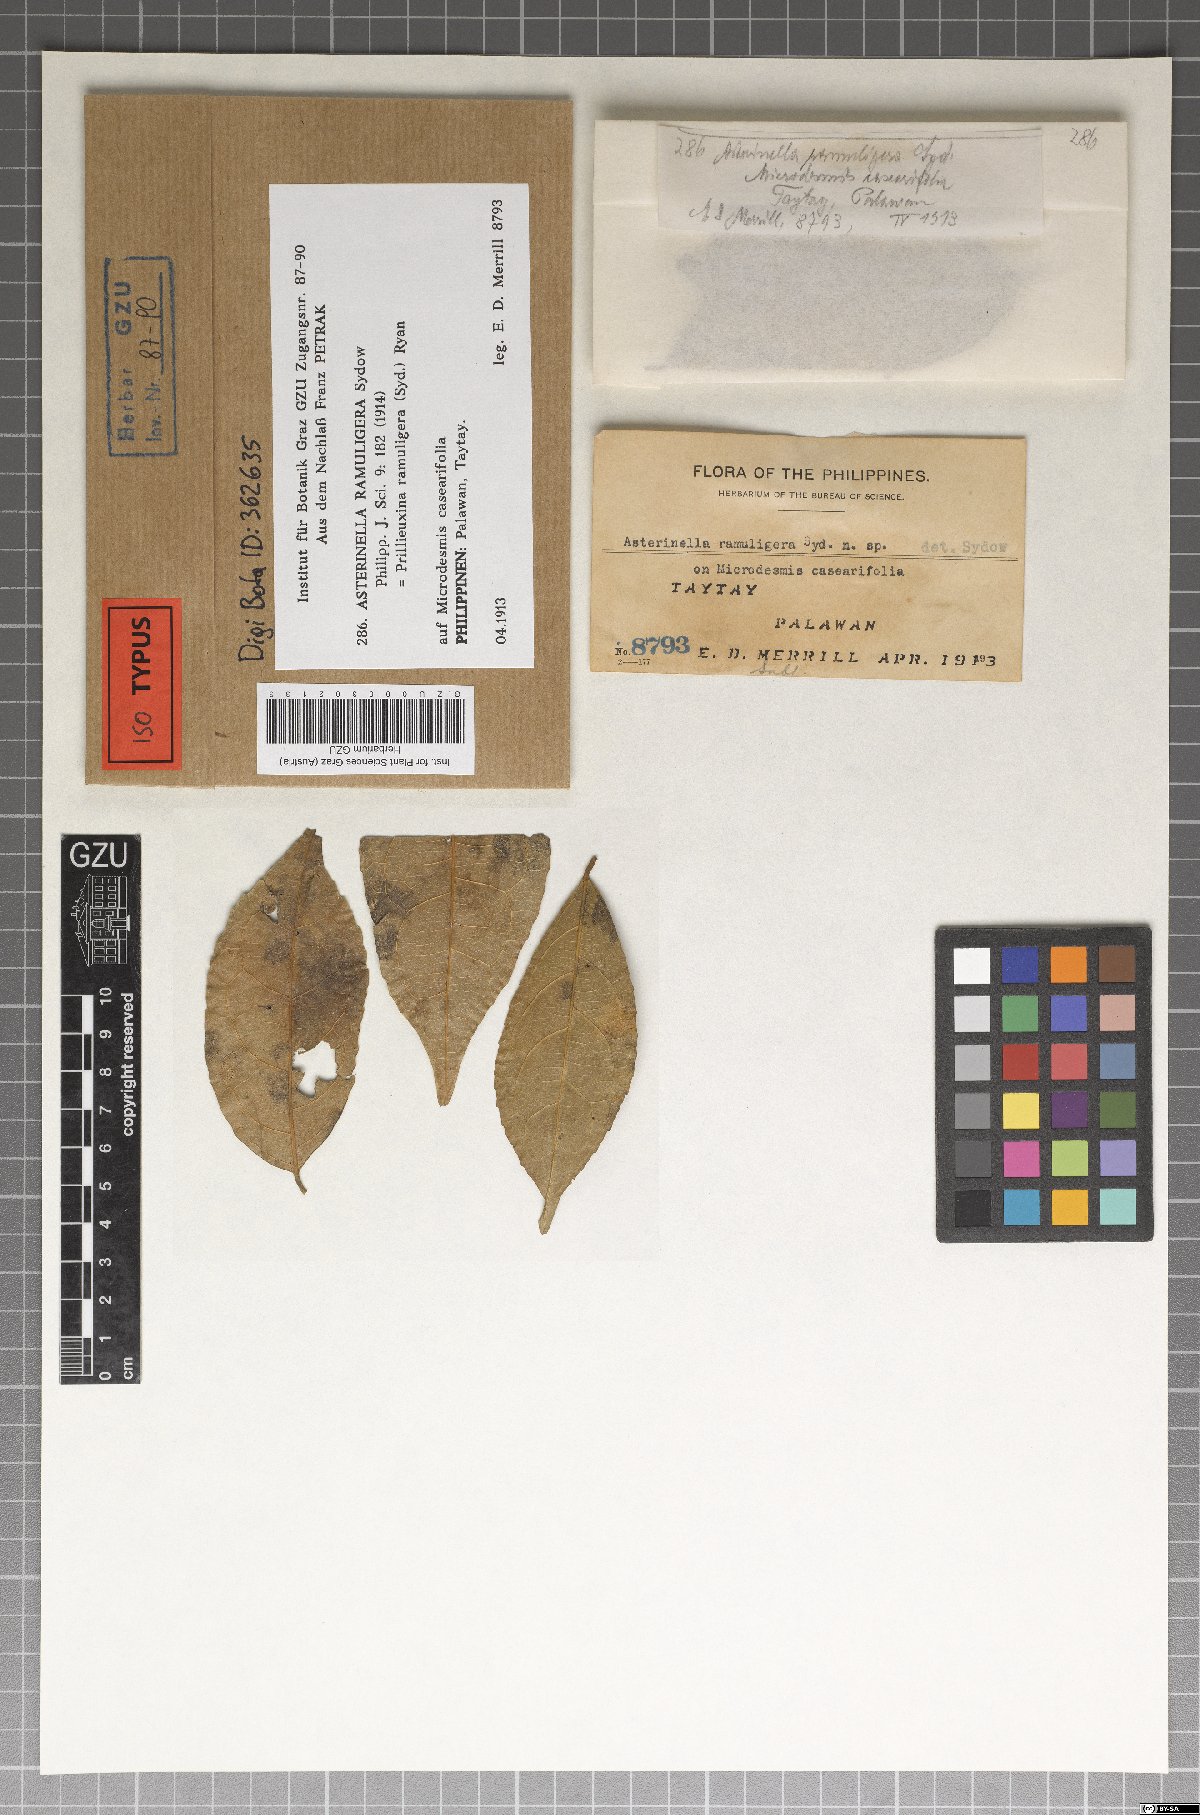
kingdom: Fungi
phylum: Ascomycota
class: Dothideomycetes
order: Asterinales
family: Asterinaceae
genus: Asterina
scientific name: Asterina ramuligera
